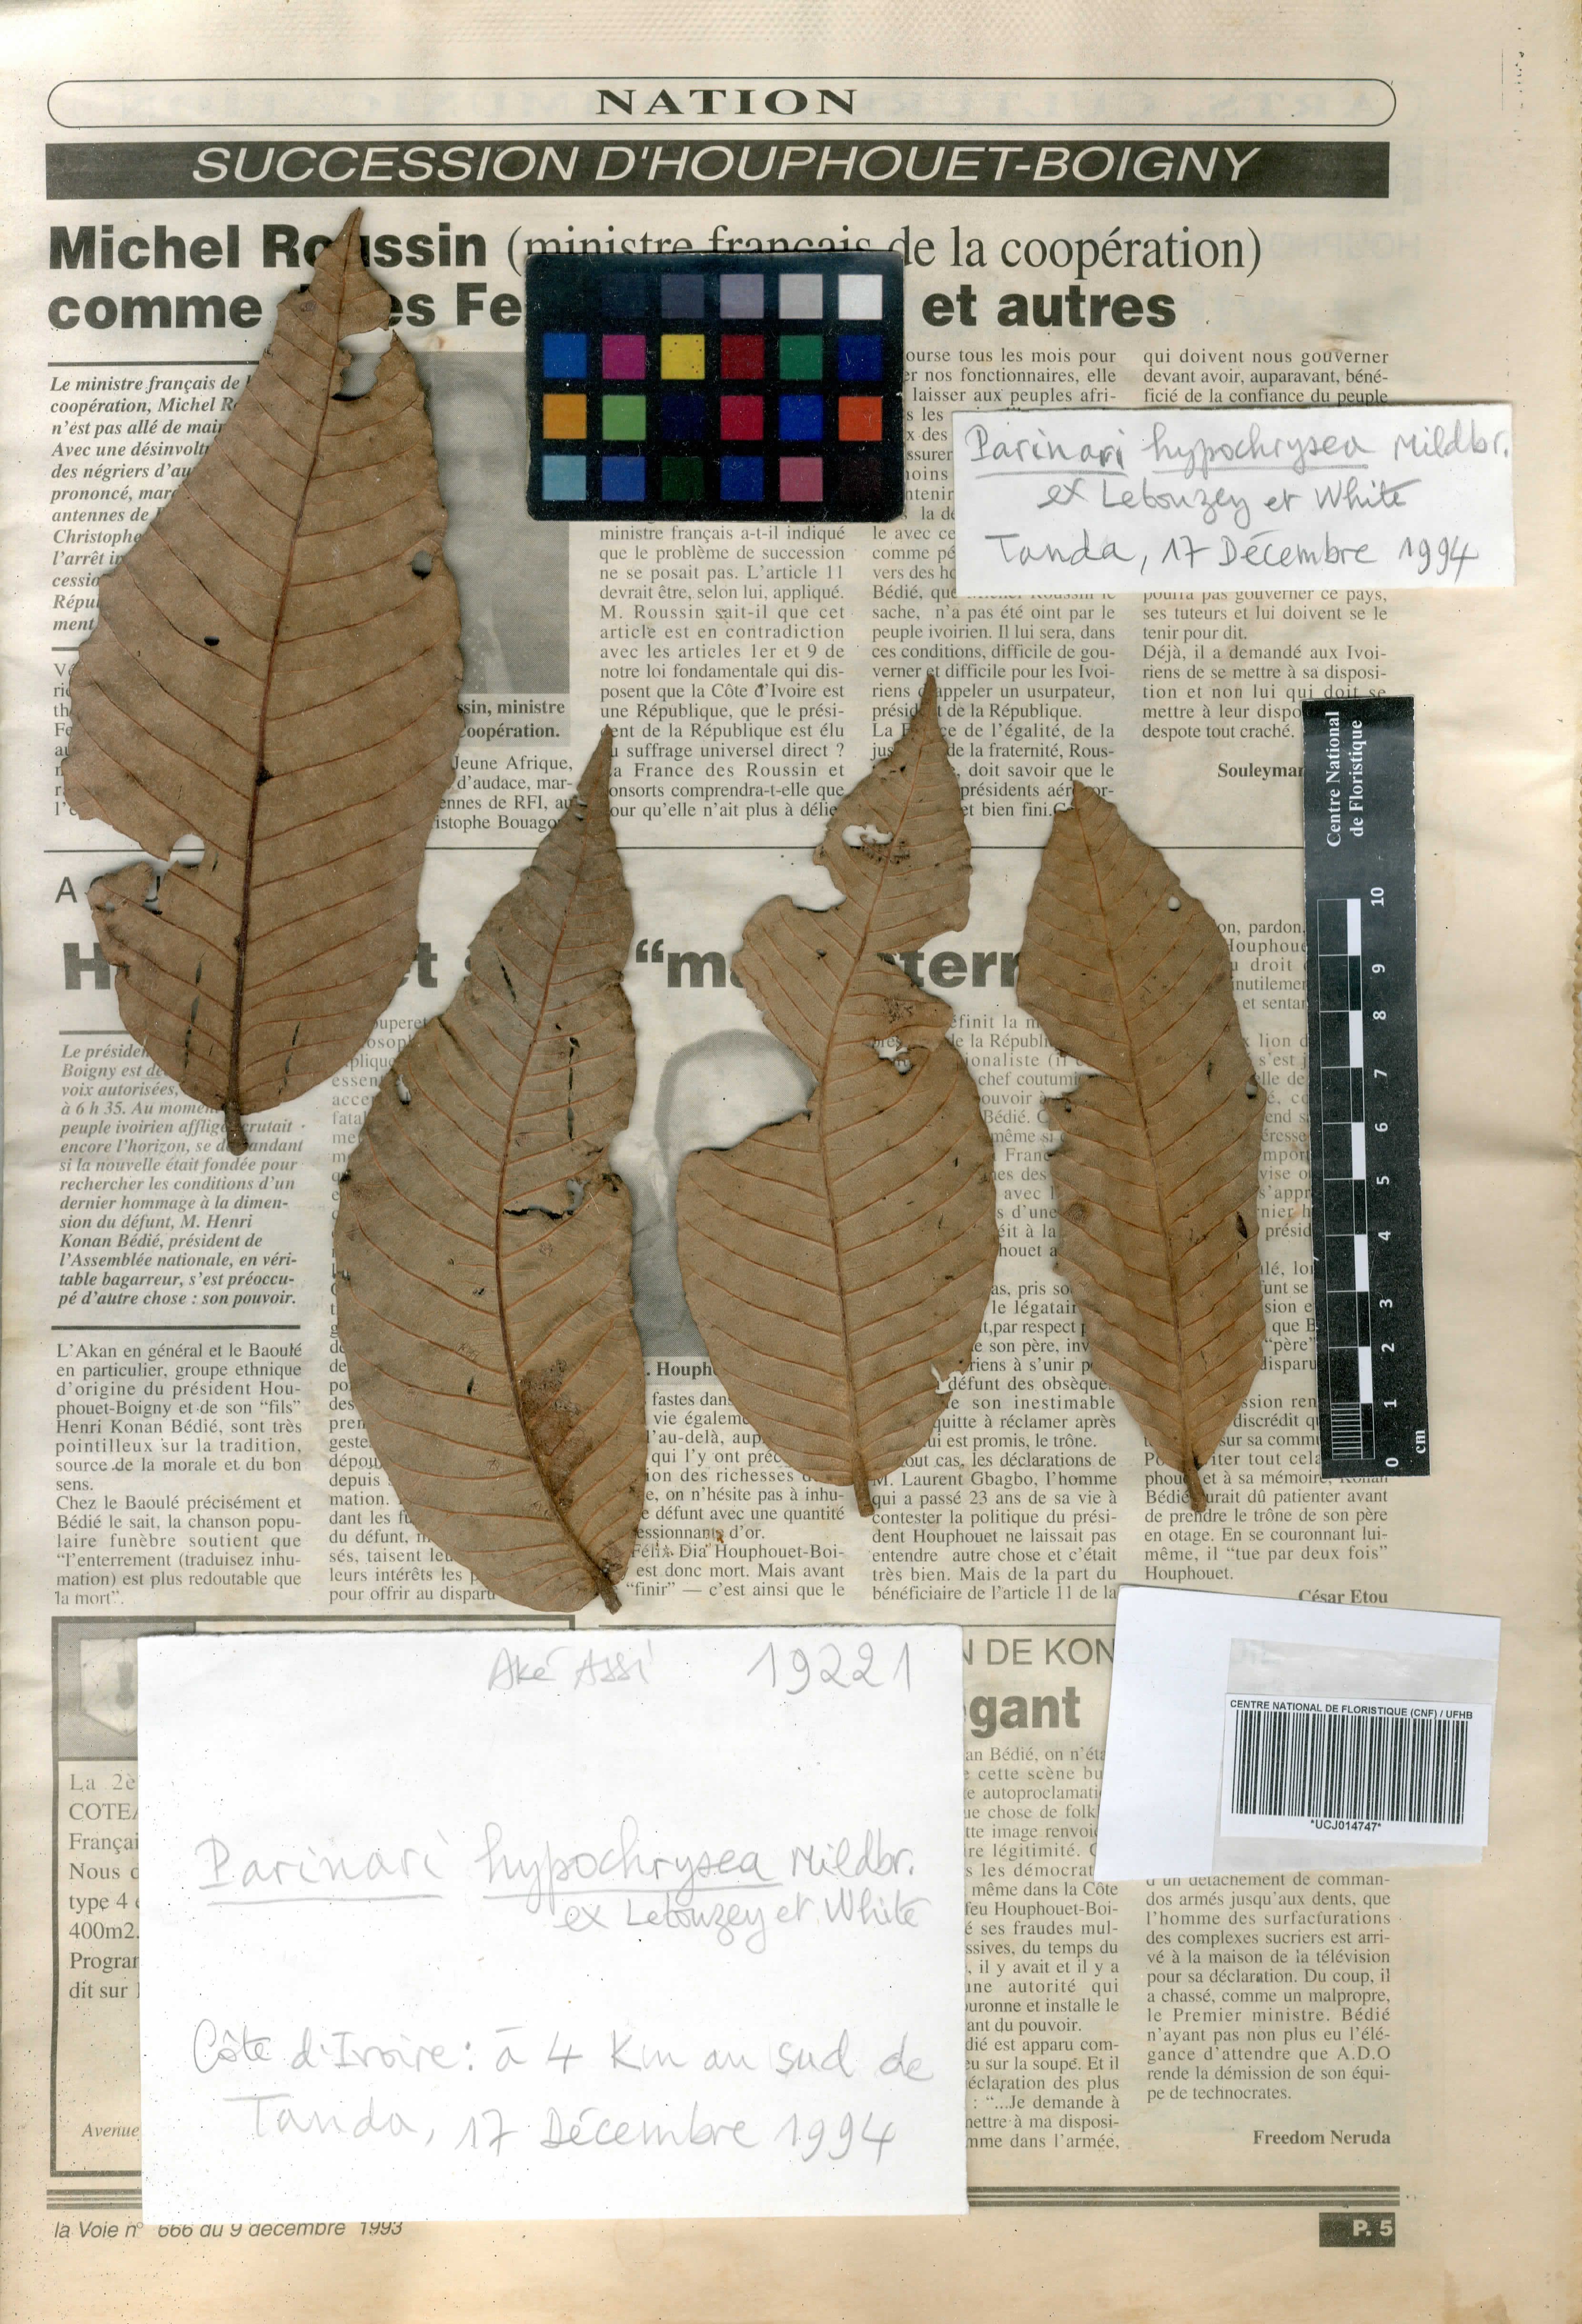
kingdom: Plantae
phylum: Tracheophyta
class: Magnoliopsida
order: Malpighiales
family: Chrysobalanaceae
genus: Parinari
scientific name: Parinari hypochrysea
